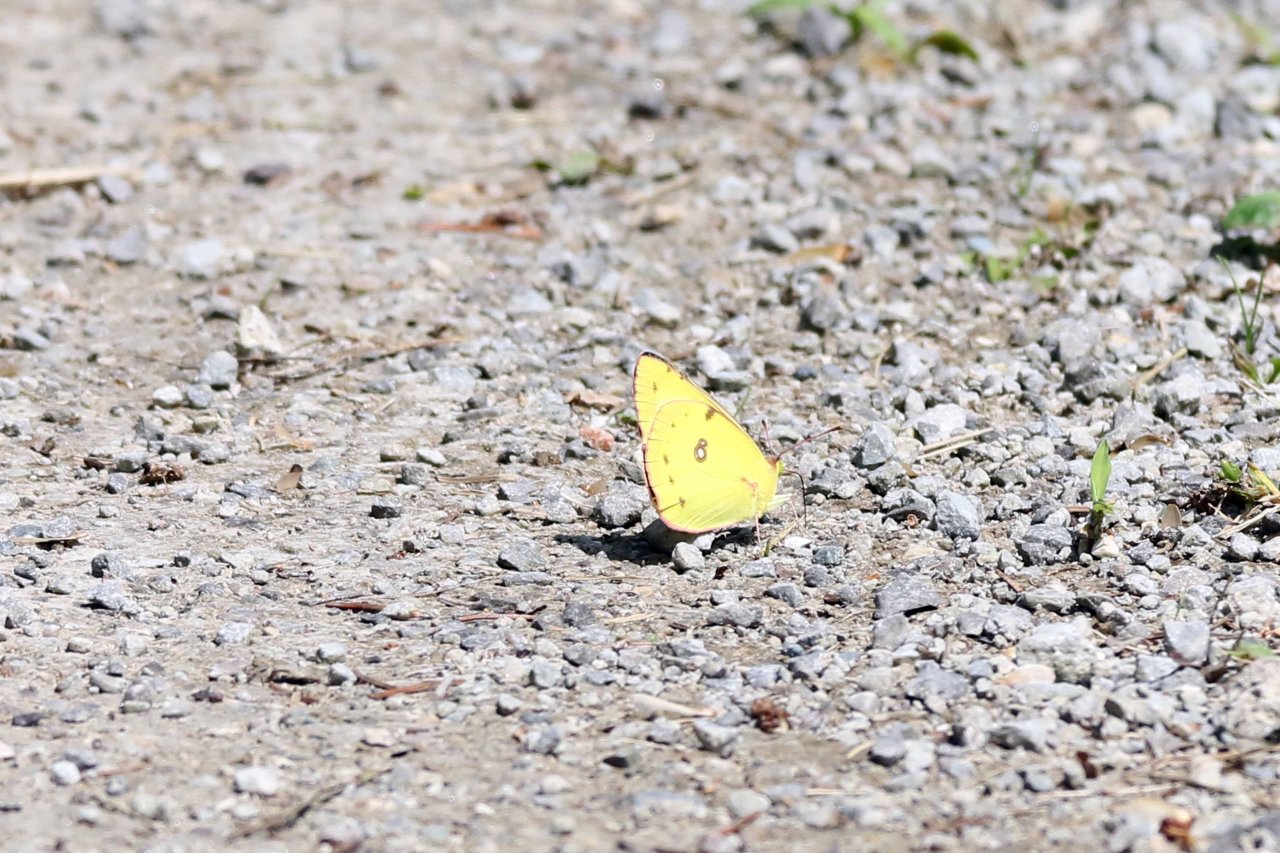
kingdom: Animalia
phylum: Arthropoda
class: Insecta
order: Lepidoptera
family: Pieridae
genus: Colias
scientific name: Colias philodice
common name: Clouded Sulphur
